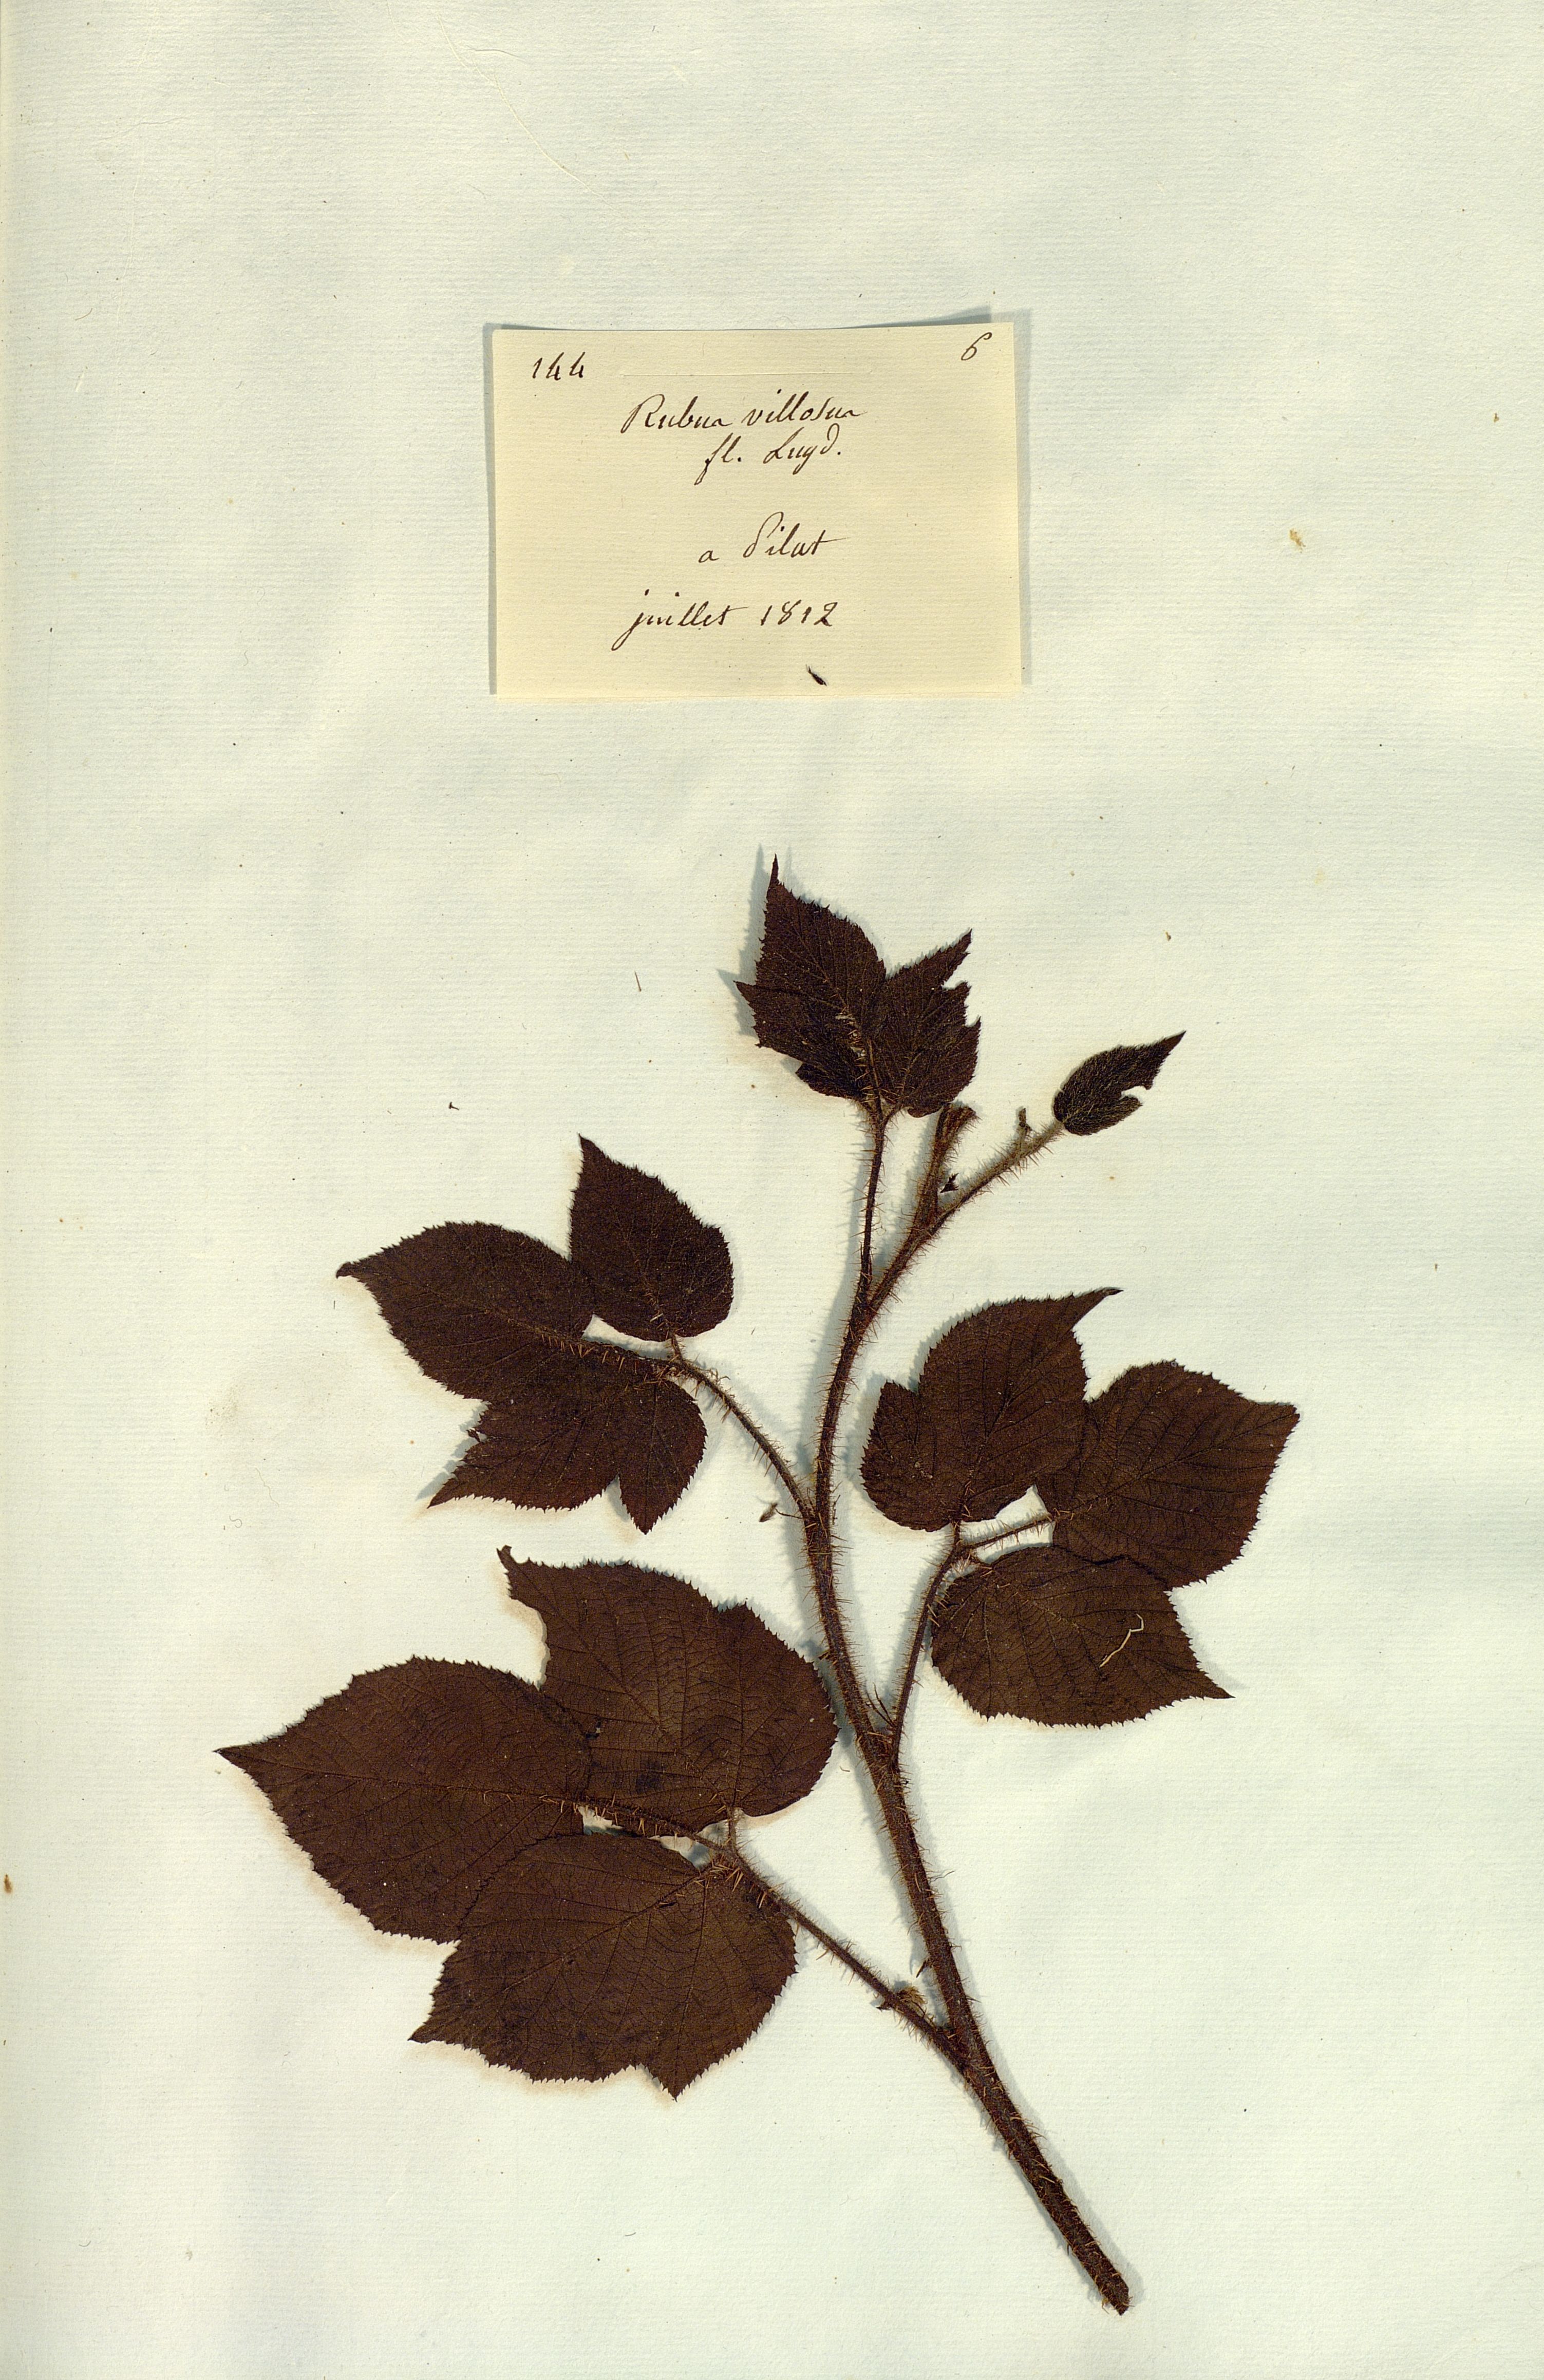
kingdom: Plantae
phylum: Tracheophyta
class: Magnoliopsida
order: Rosales
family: Rosaceae
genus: Rubus
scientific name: Rubus
